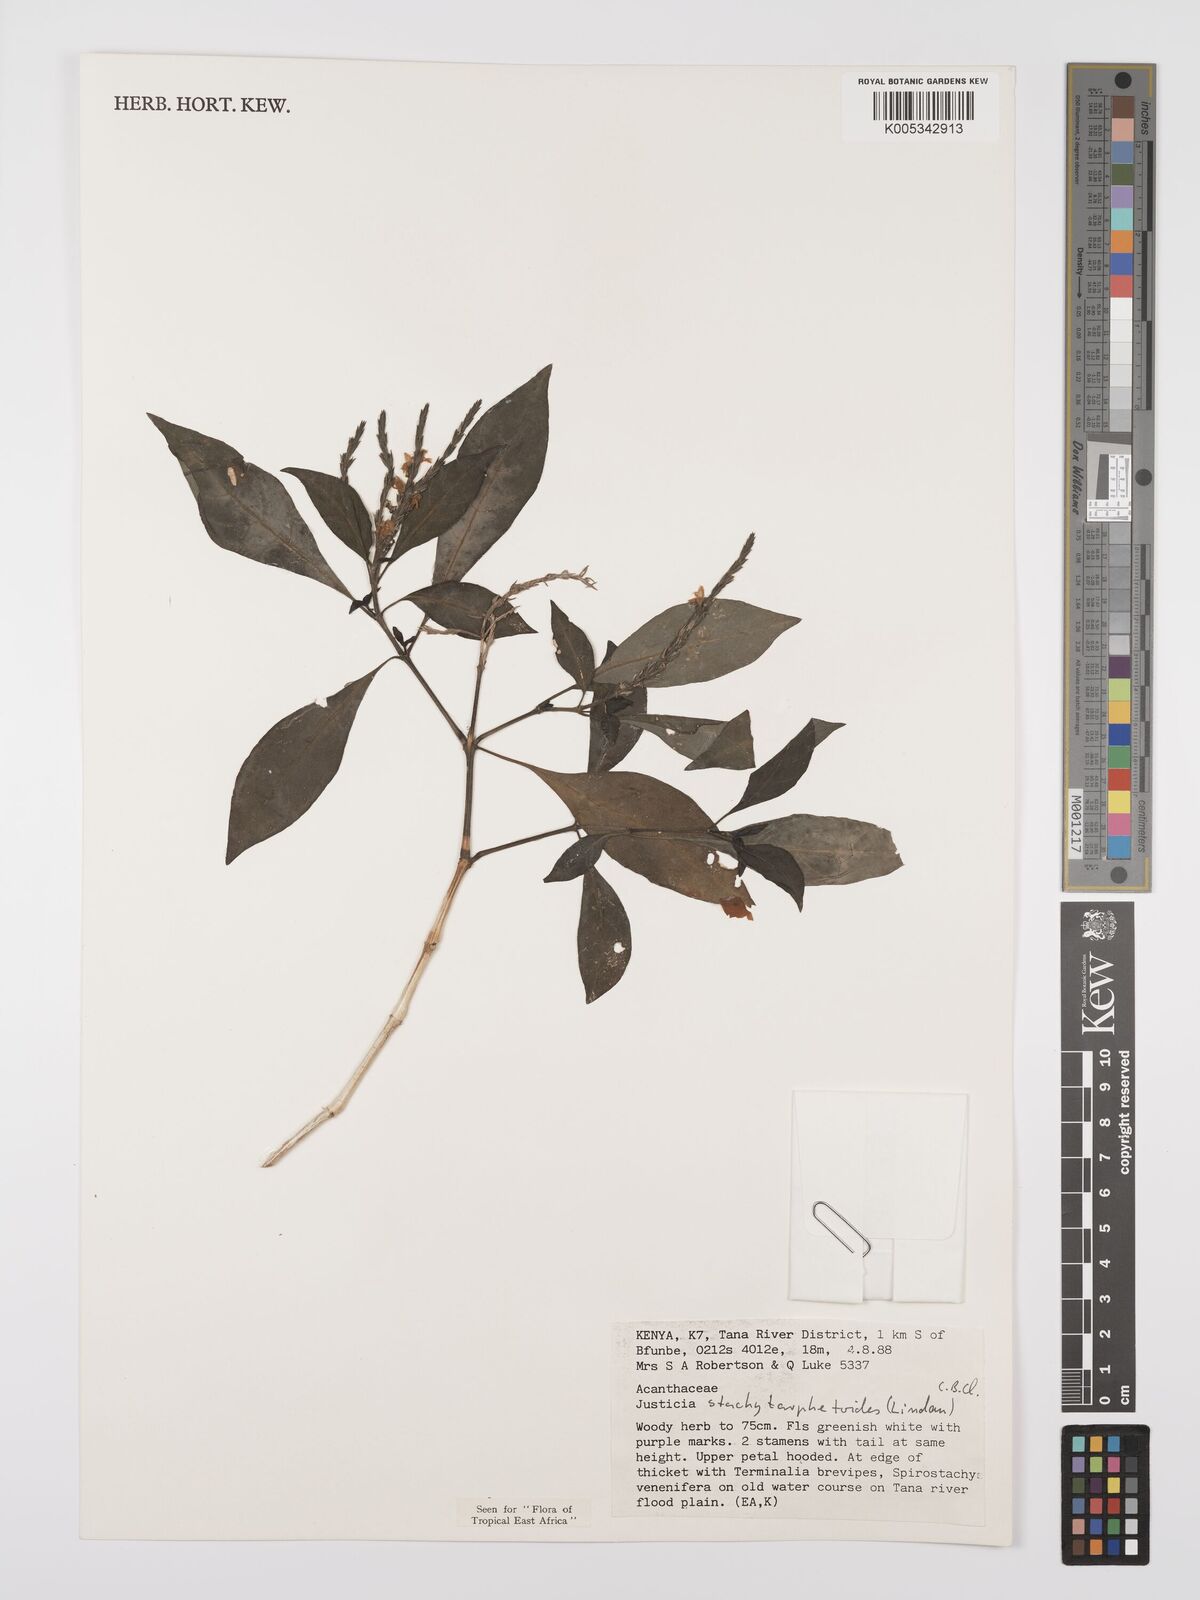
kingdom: Plantae
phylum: Tracheophyta
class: Magnoliopsida
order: Lamiales
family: Acanthaceae
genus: Justicia
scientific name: Justicia stachytarphetoides
